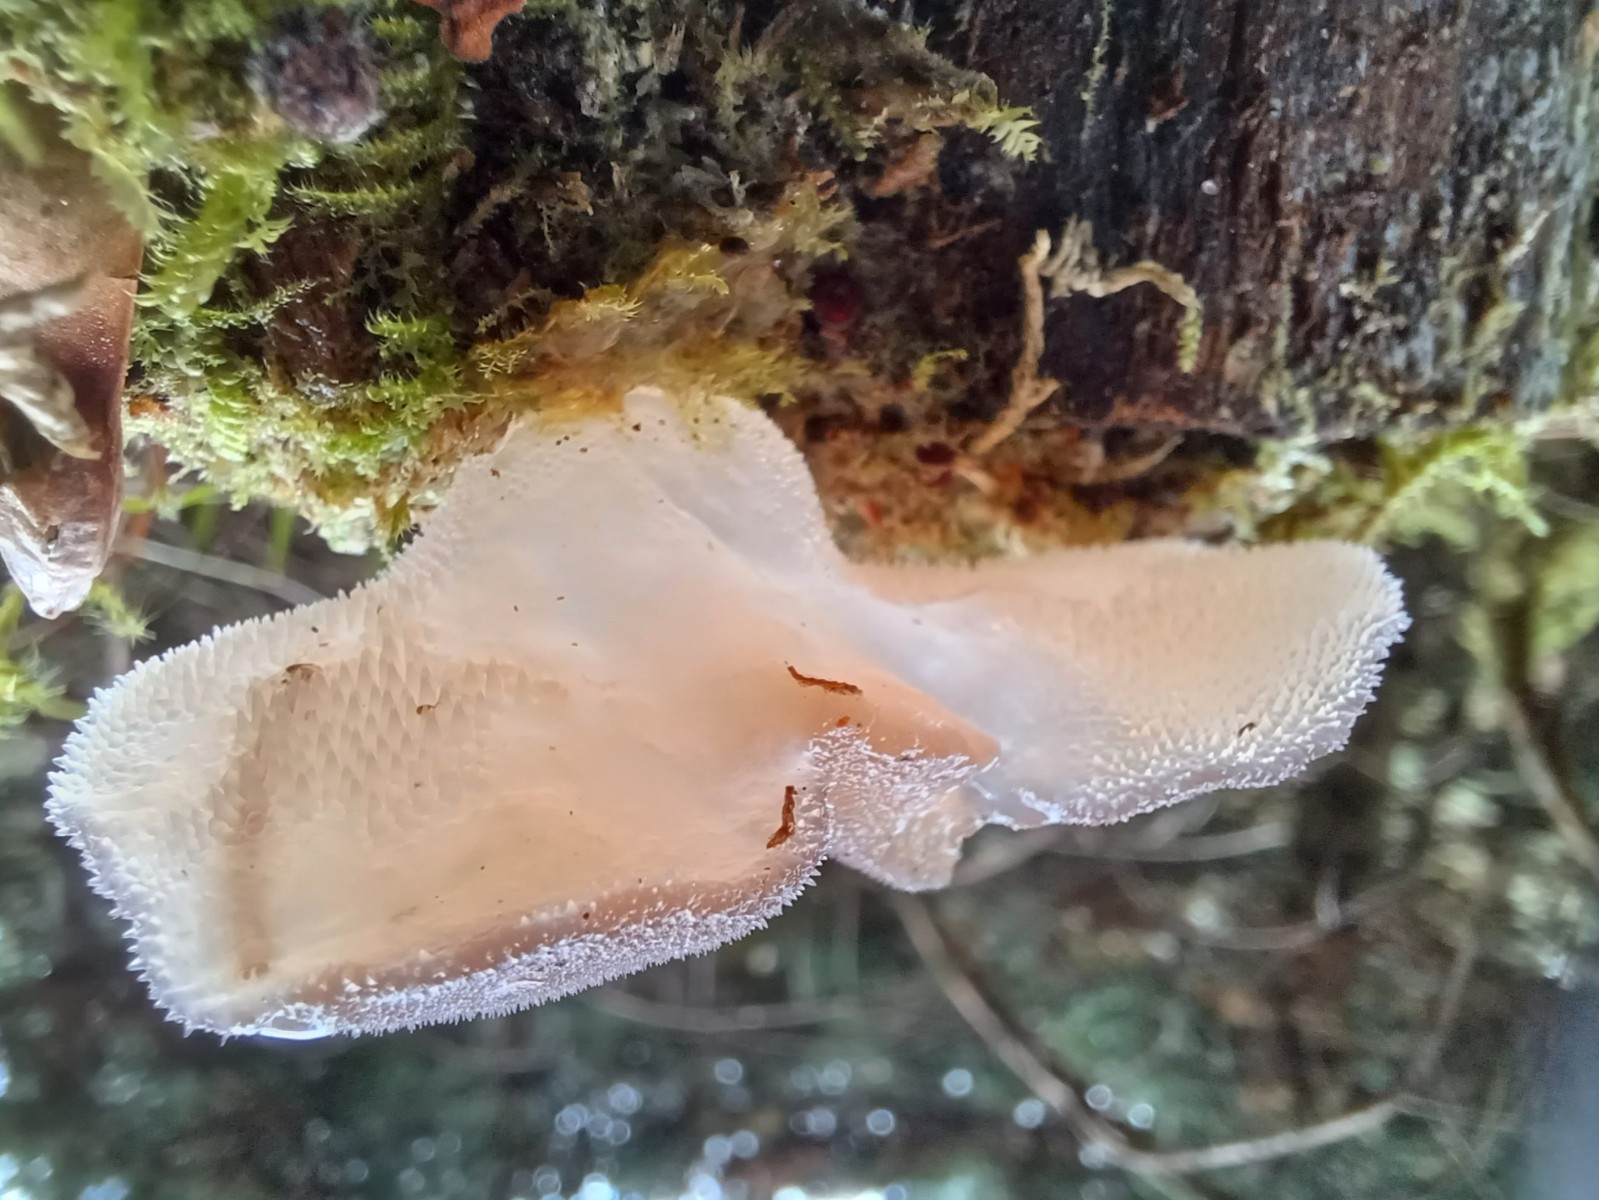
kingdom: Fungi
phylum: Basidiomycota
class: Agaricomycetes
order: Auriculariales
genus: Pseudohydnum
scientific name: Pseudohydnum gelatinosum
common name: bævretand
